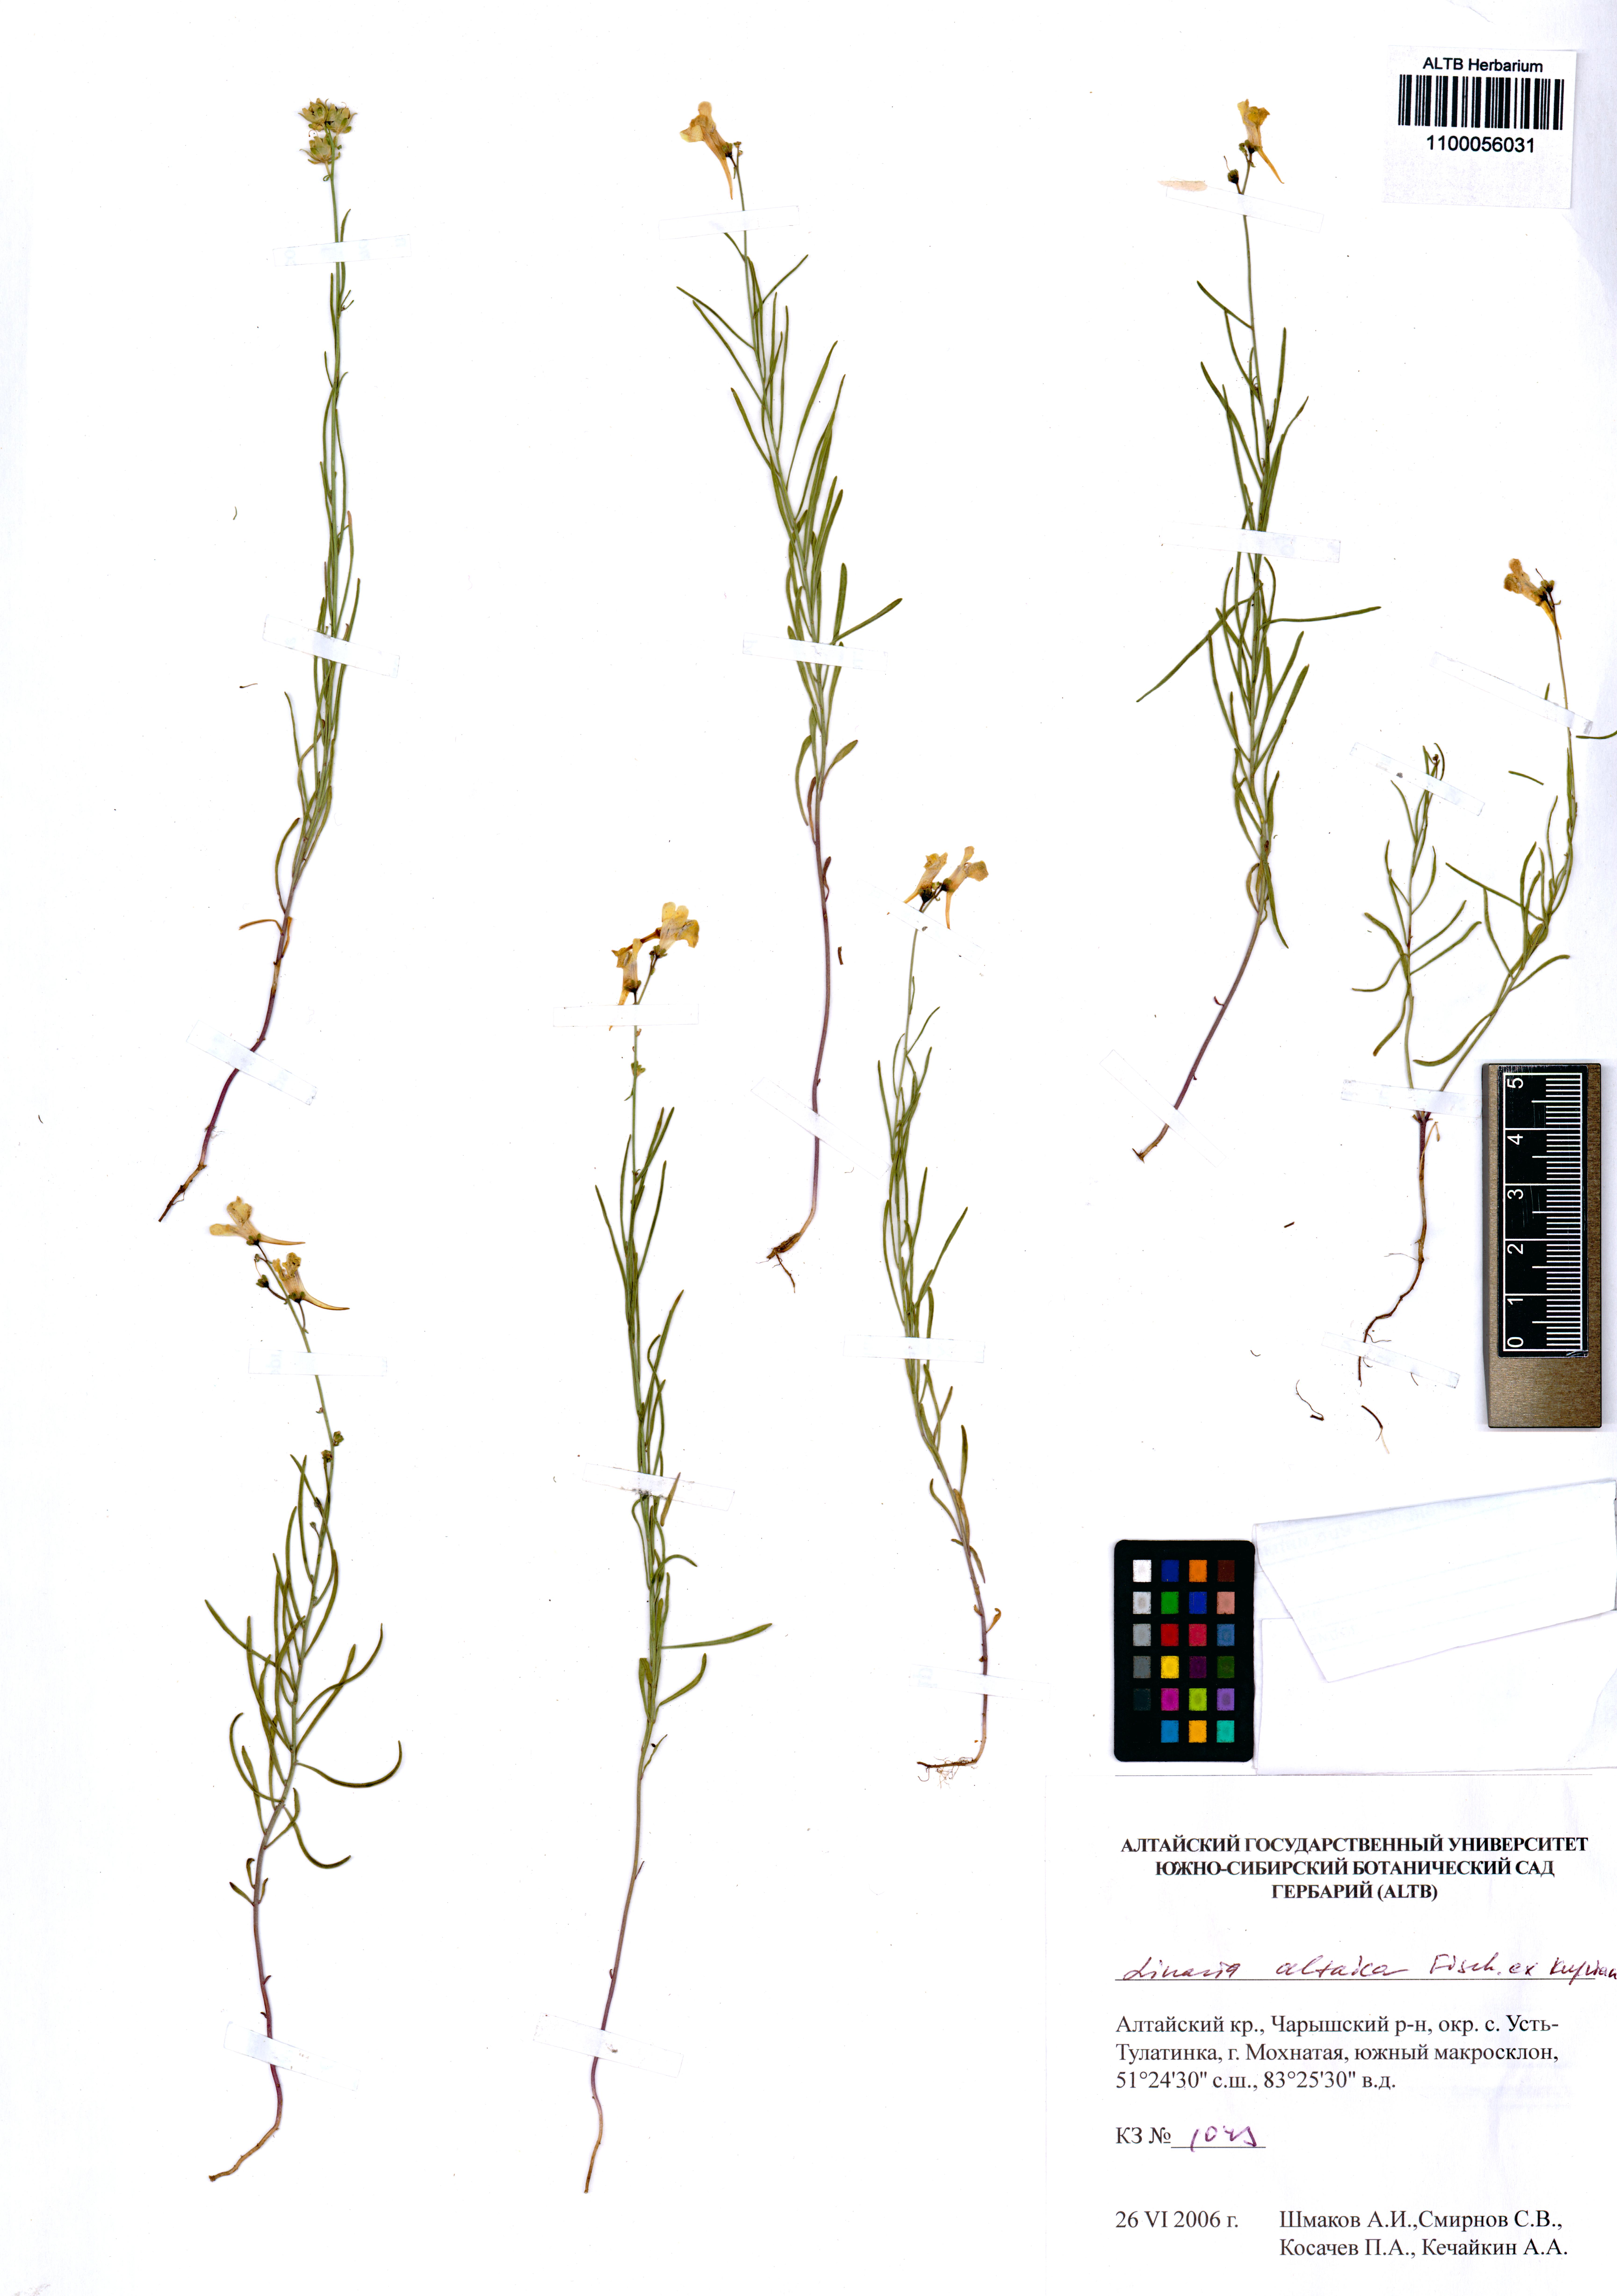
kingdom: Plantae
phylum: Tracheophyta
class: Magnoliopsida
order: Lamiales
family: Plantaginaceae
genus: Linaria
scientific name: Linaria altaica
